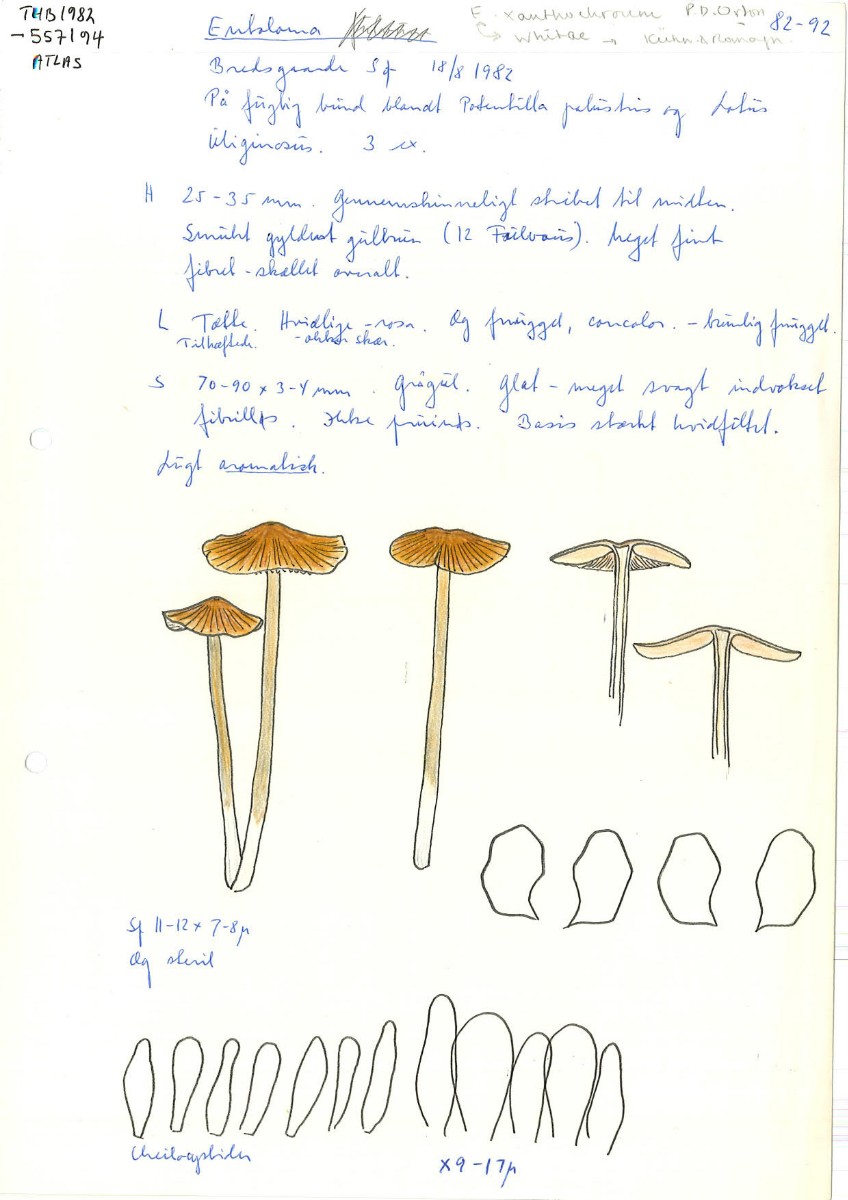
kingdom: Fungi
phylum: Basidiomycota
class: Agaricomycetes
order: Agaricales
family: Entolomataceae
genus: Entoloma
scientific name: Entoloma formosum
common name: brungul rødblad
